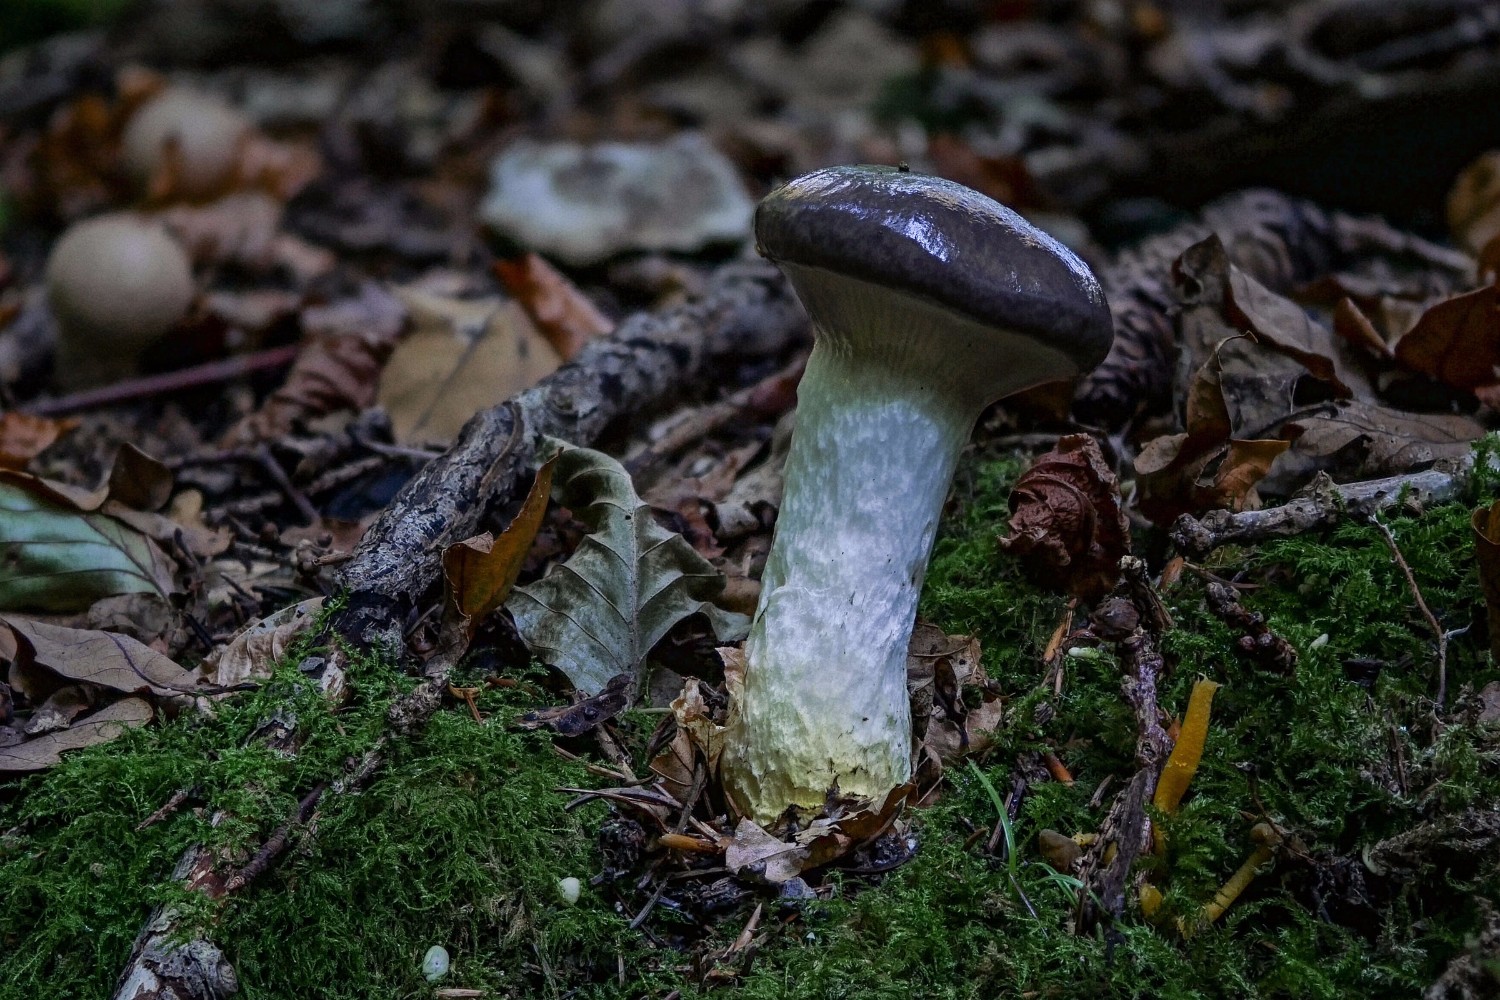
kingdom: Fungi
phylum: Basidiomycota
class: Agaricomycetes
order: Boletales
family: Gomphidiaceae
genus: Gomphidius
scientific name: Gomphidius glutinosus
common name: grå slimslør
